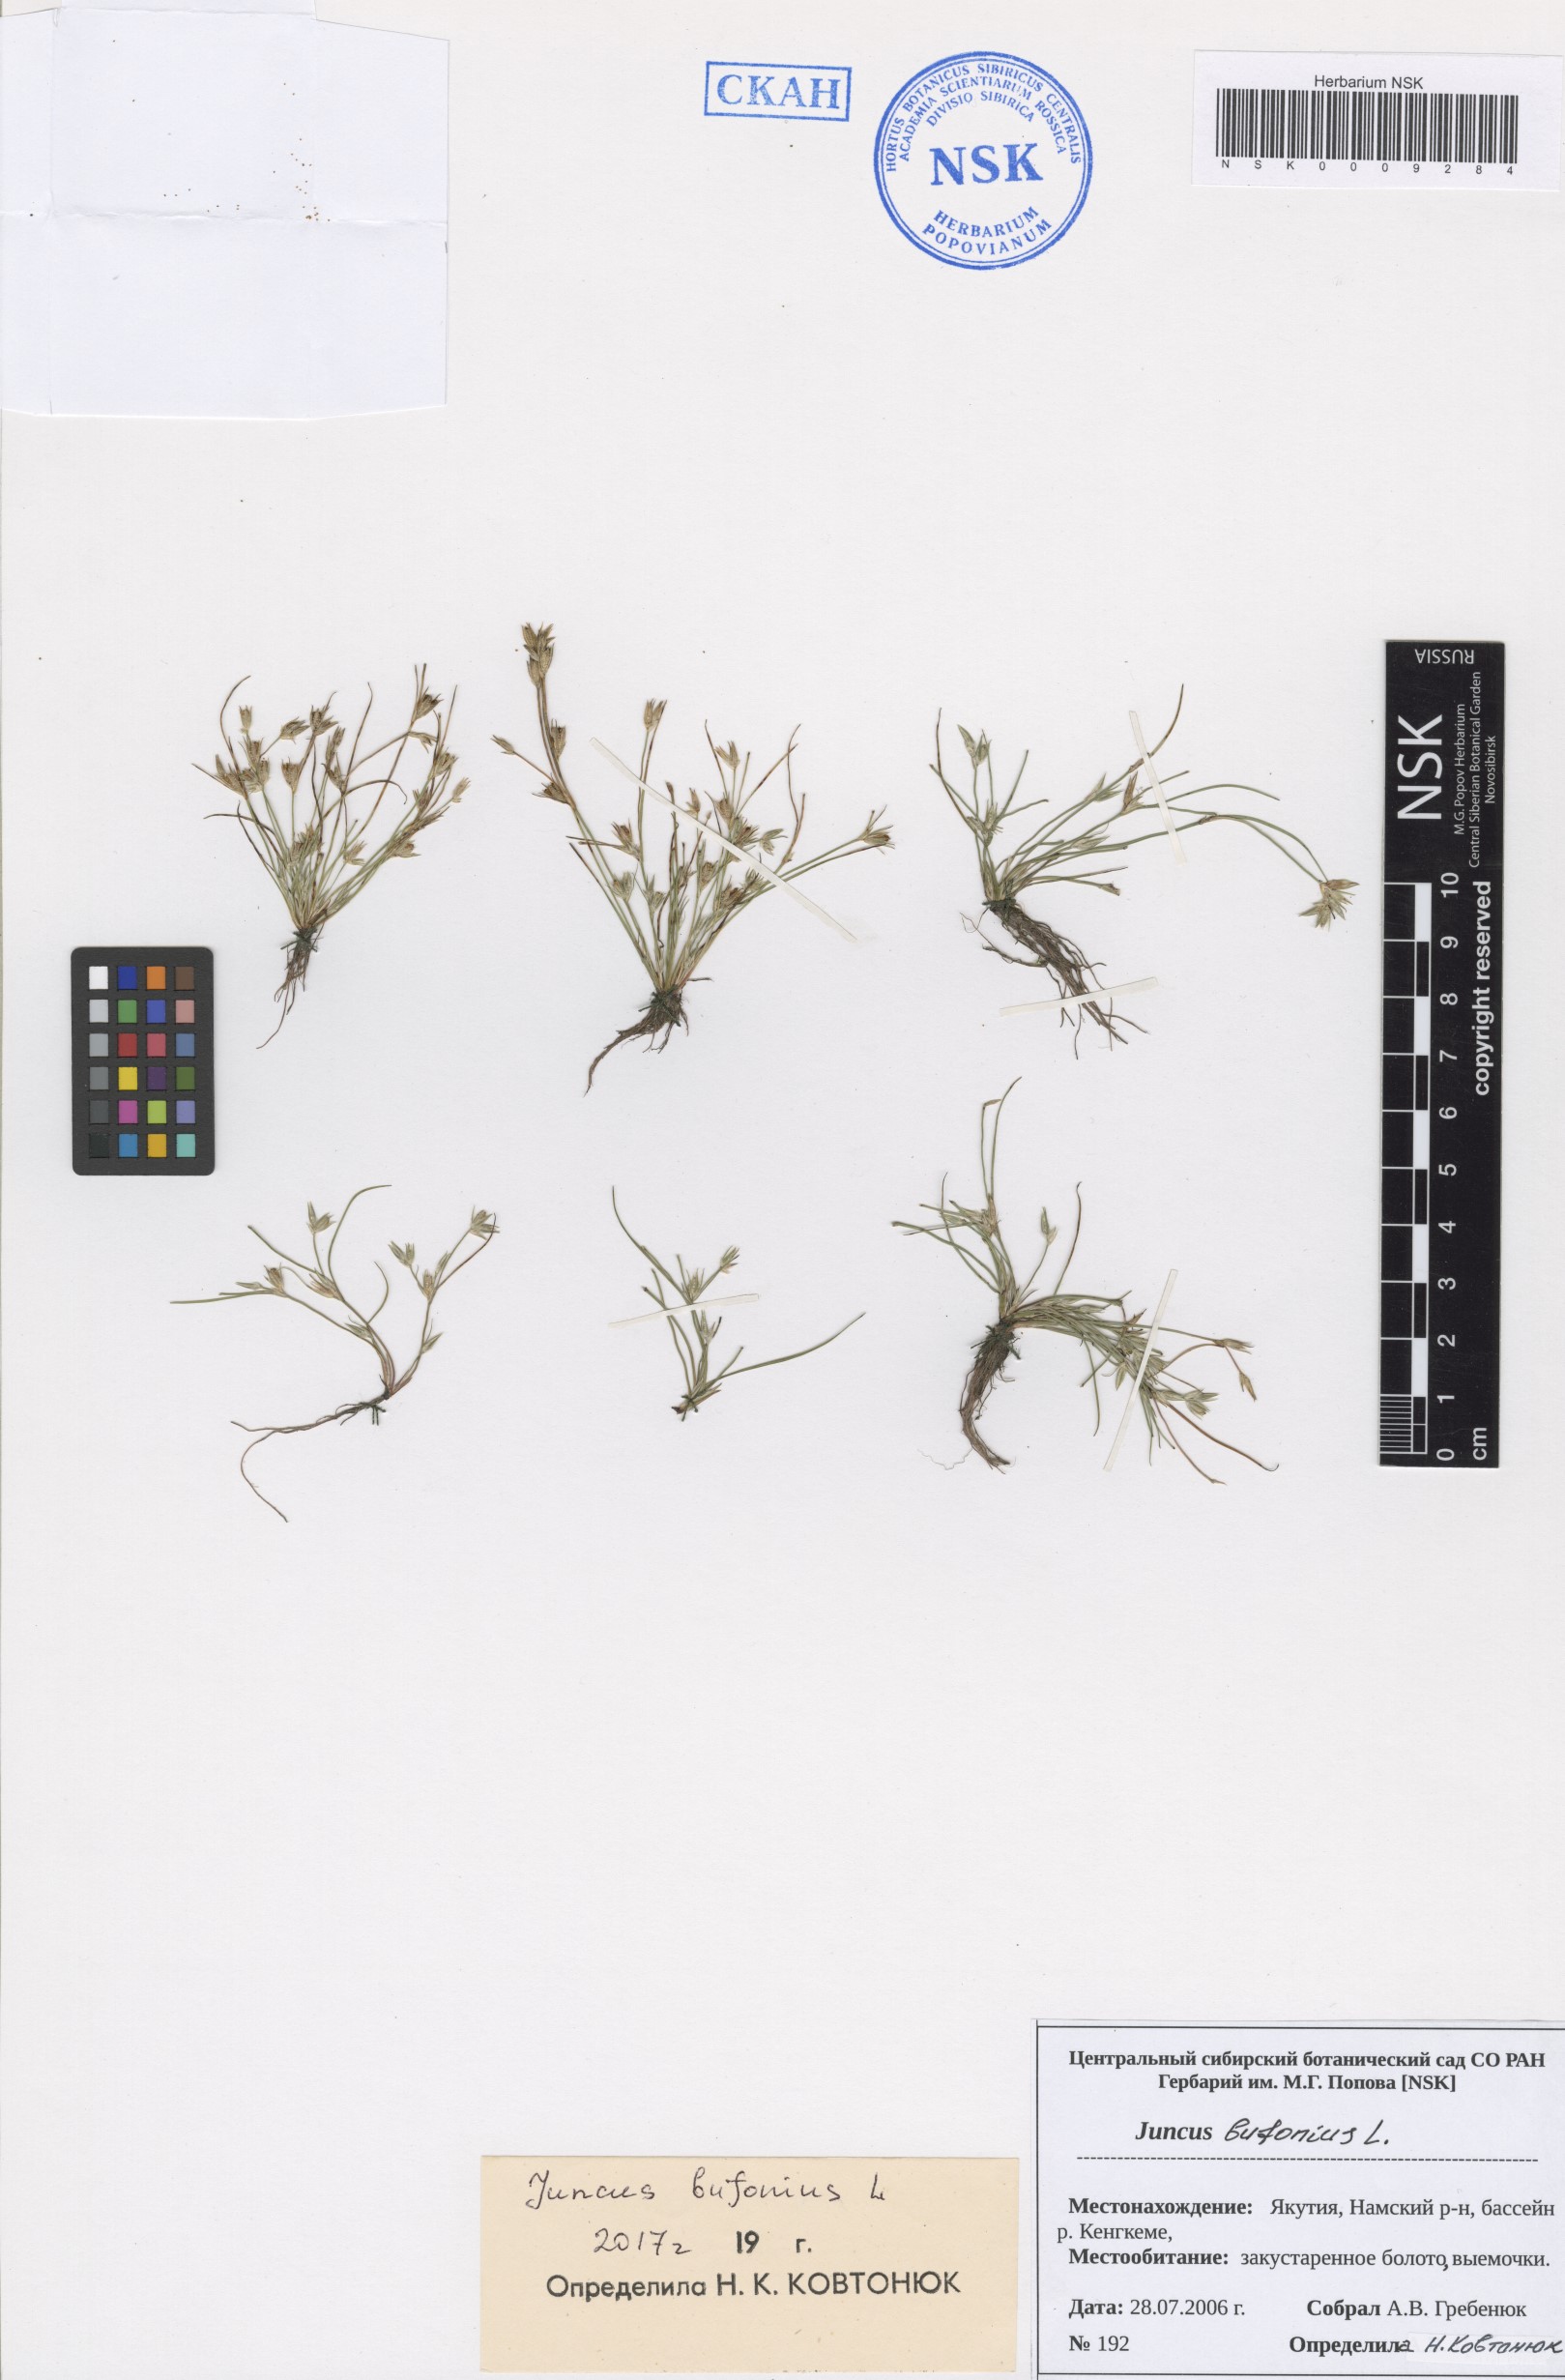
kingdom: Plantae
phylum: Tracheophyta
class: Liliopsida
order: Poales
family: Juncaceae
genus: Juncus
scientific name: Juncus bufonius
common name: Toad rush
